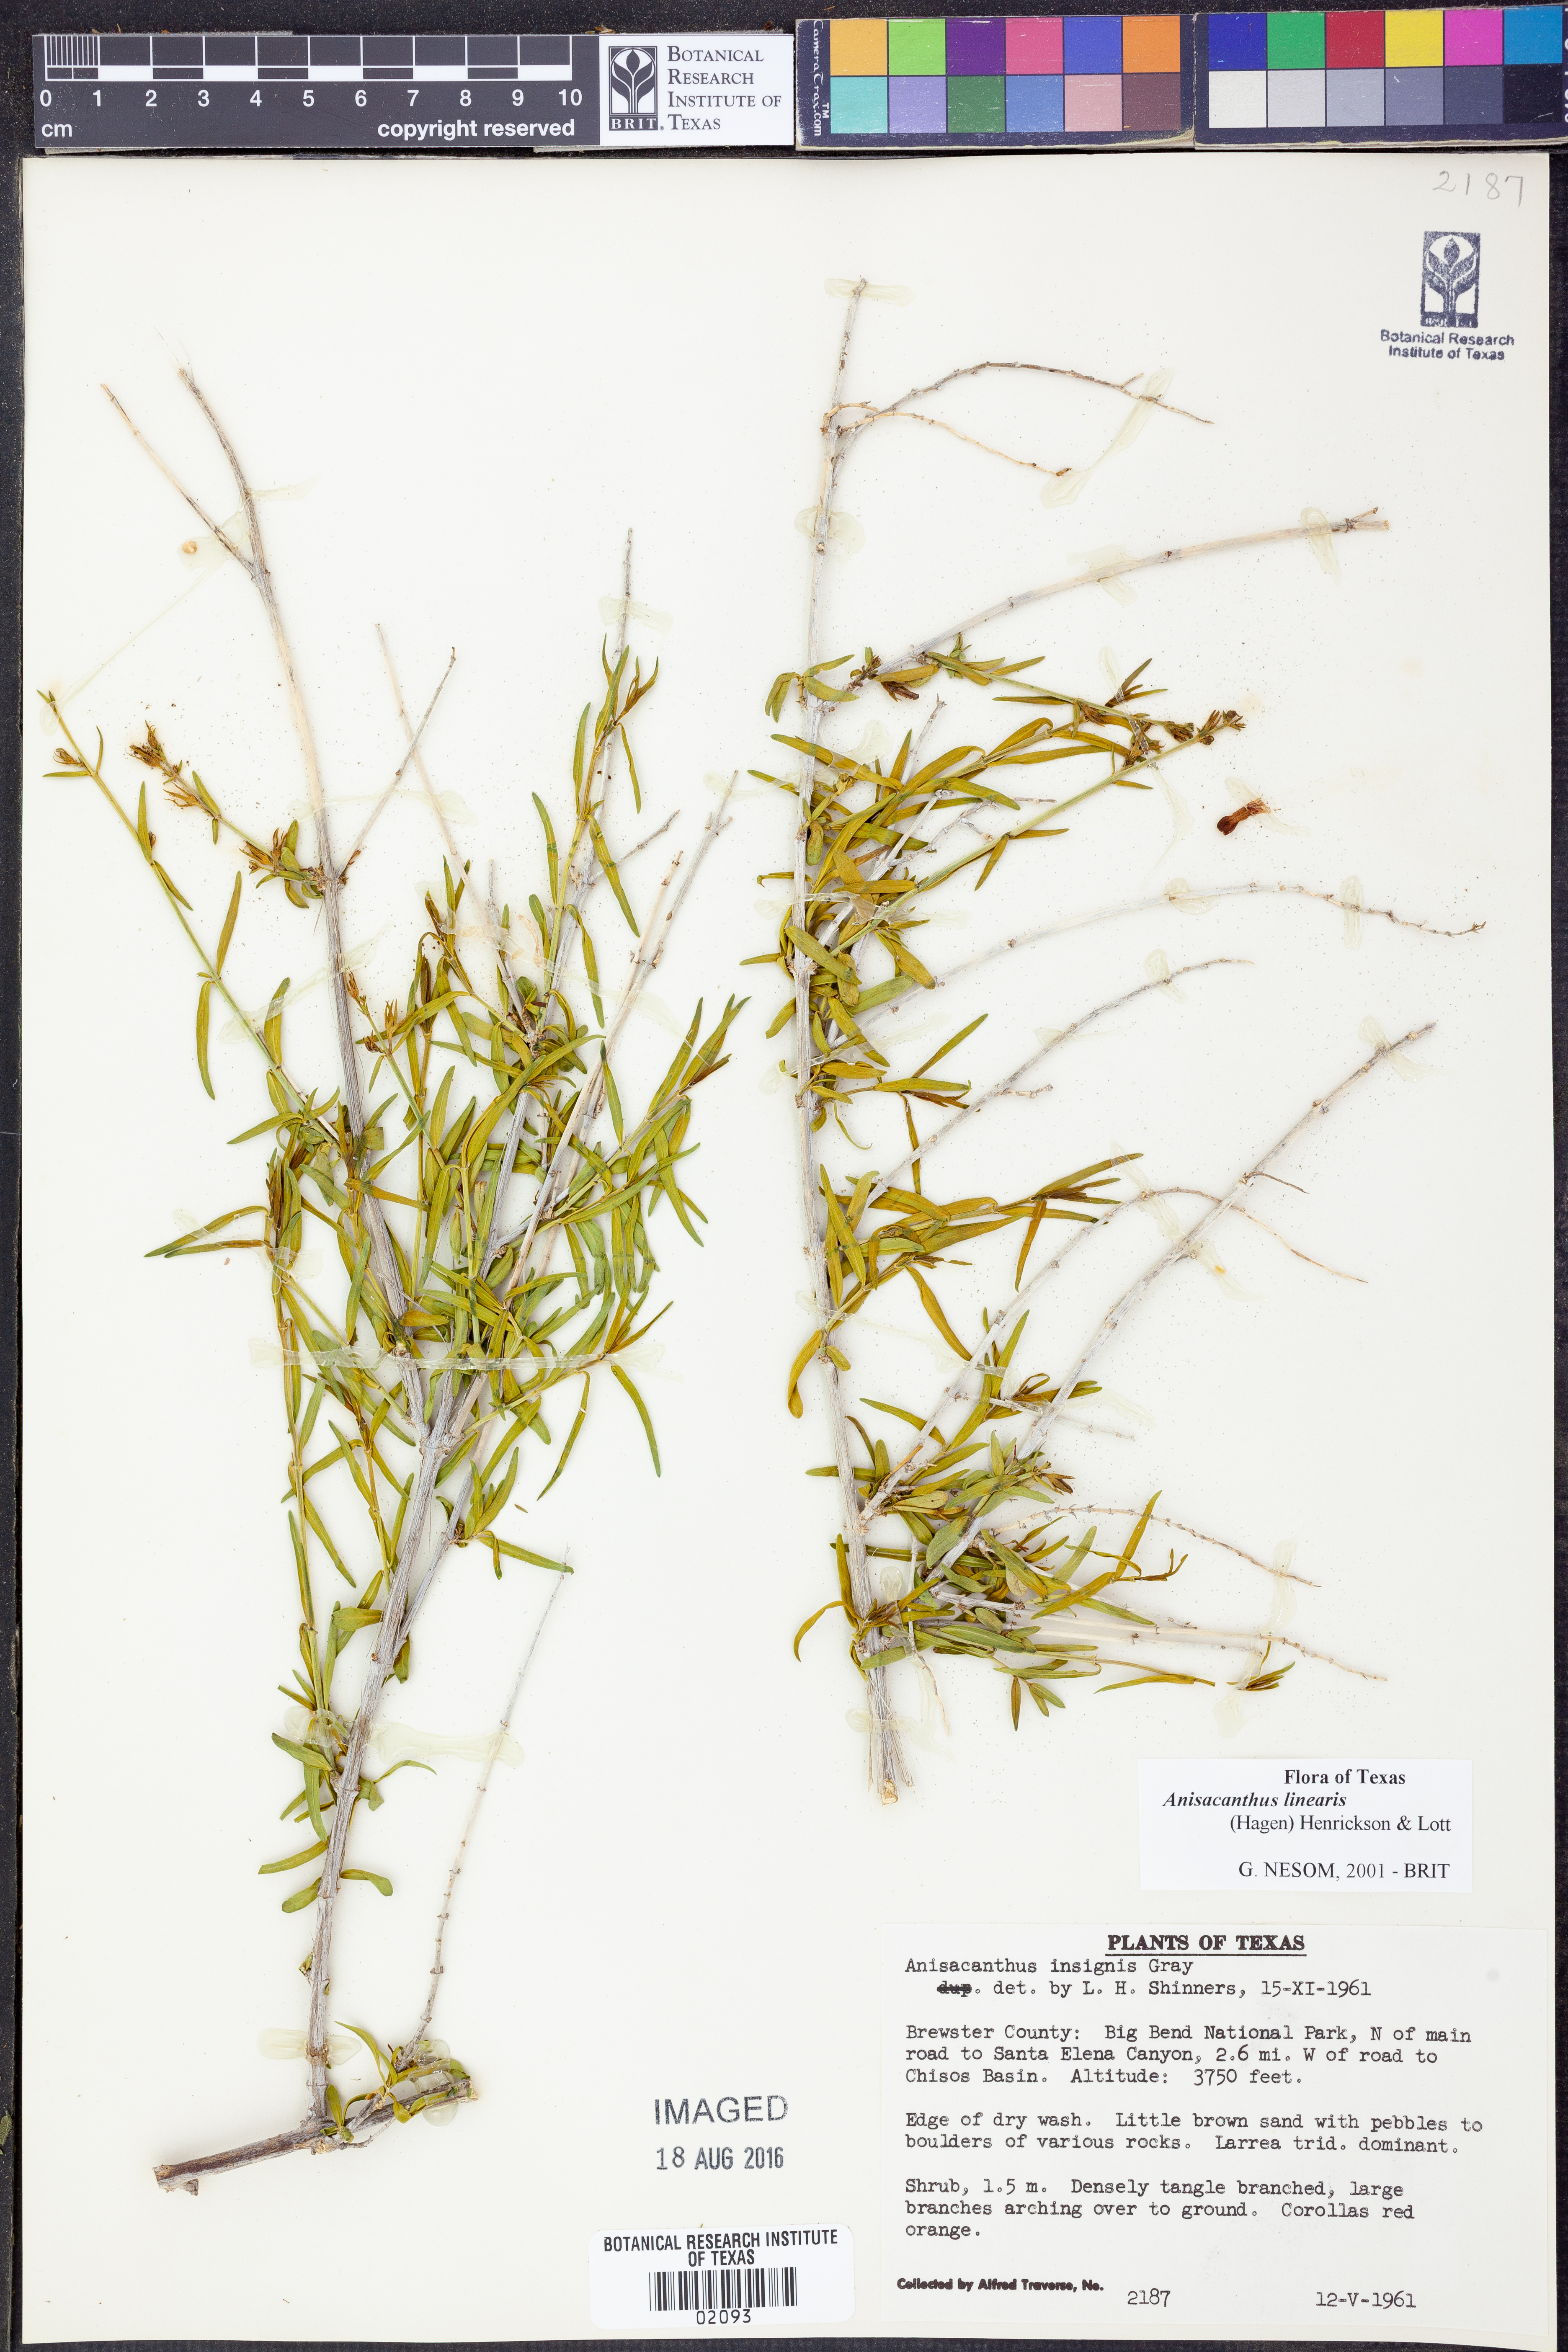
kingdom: Plantae
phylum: Tracheophyta
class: Magnoliopsida
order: Lamiales
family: Acanthaceae
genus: Anisacanthus
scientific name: Anisacanthus linearis
